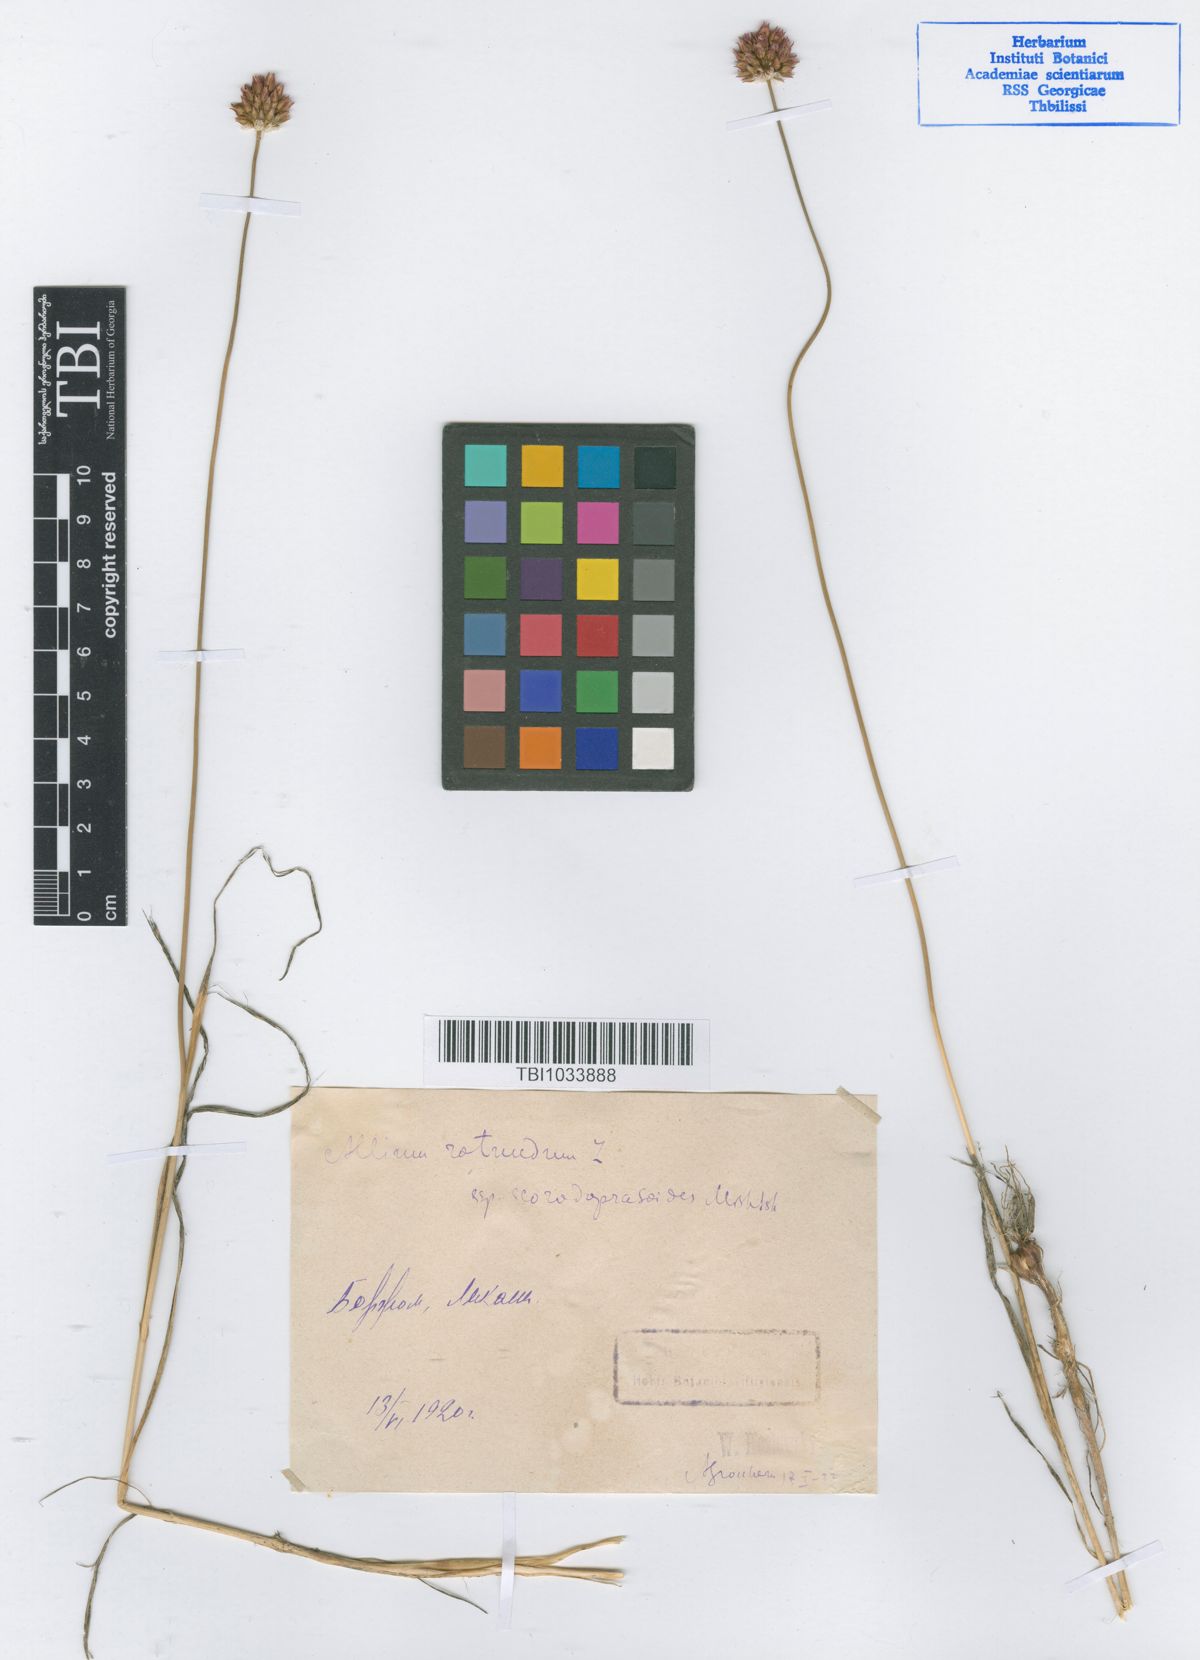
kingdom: Plantae
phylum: Tracheophyta
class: Liliopsida
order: Asparagales
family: Amaryllidaceae
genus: Allium
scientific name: Allium rotundum
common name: Sand leek
